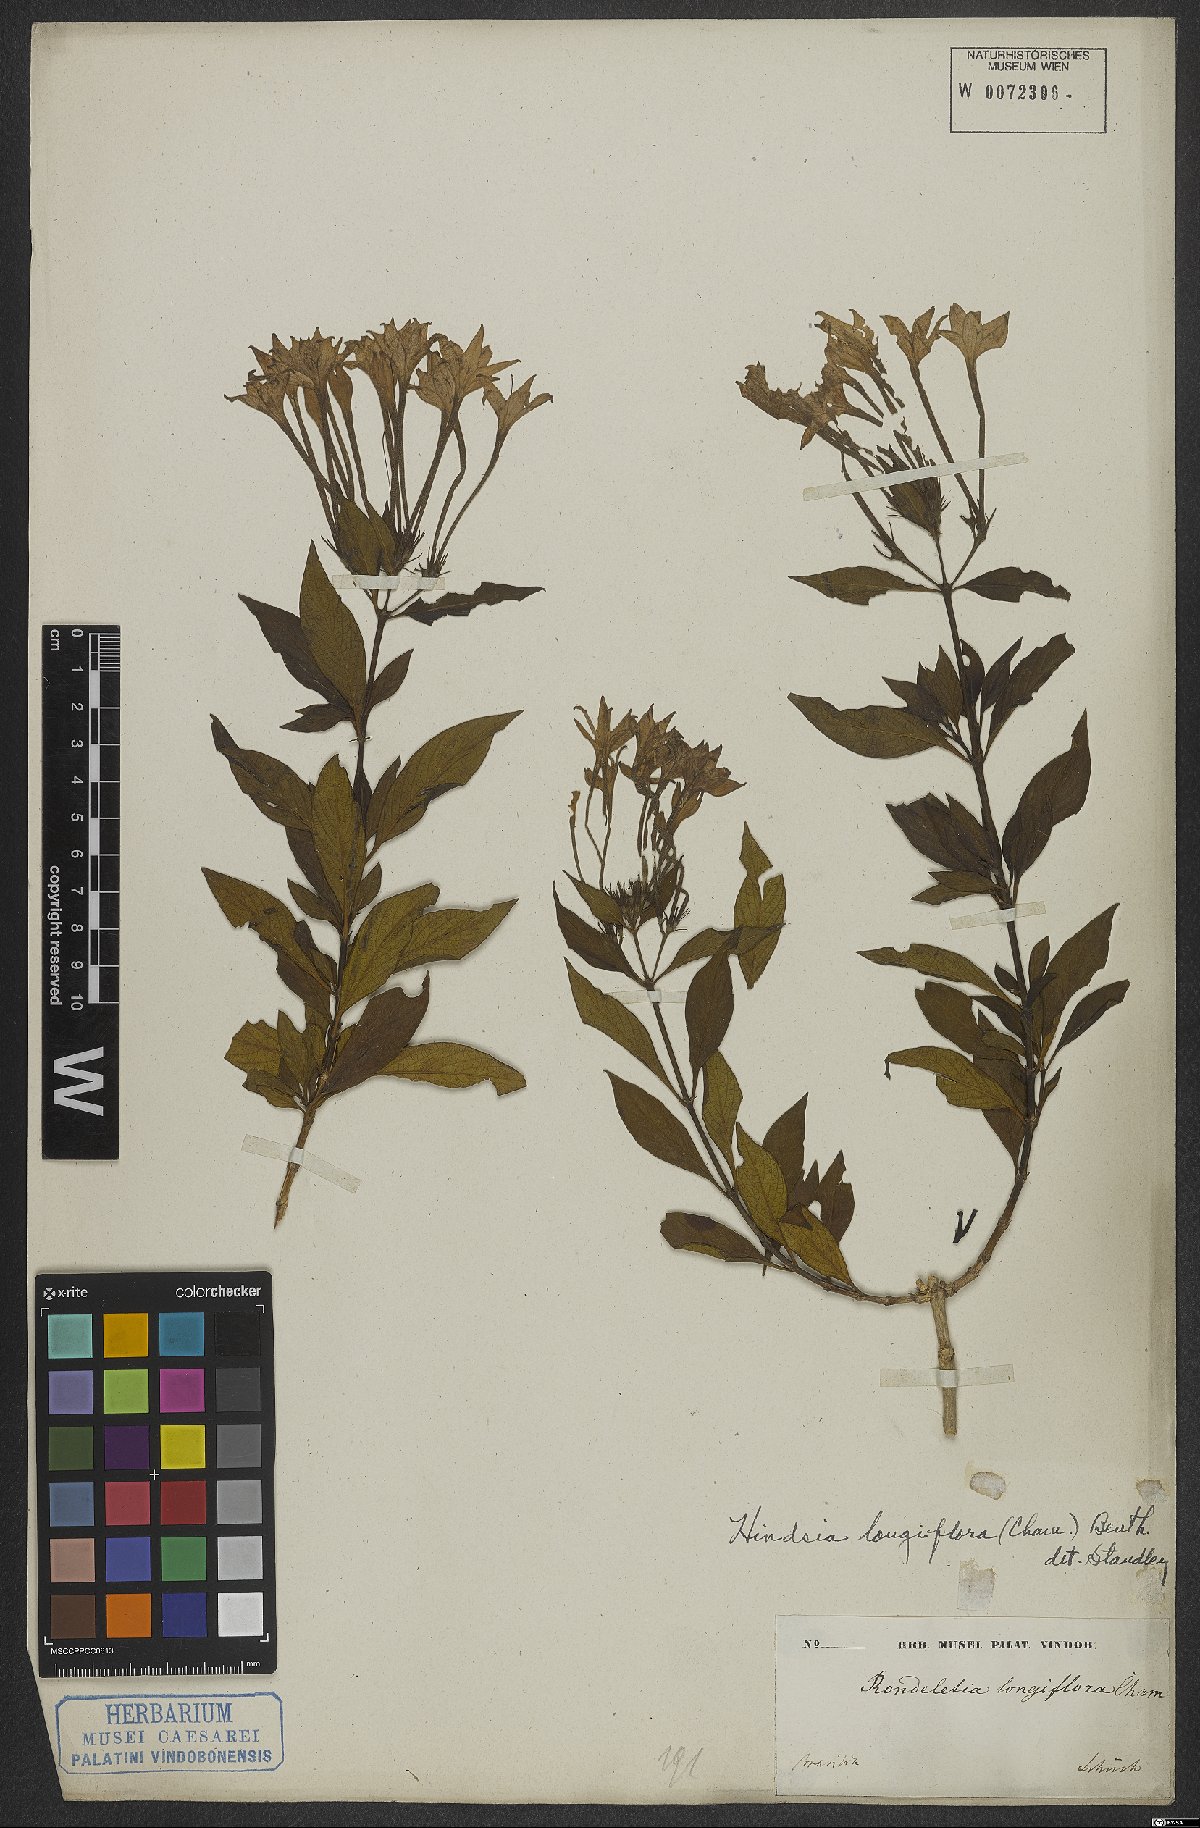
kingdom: Plantae
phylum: Tracheophyta
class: Magnoliopsida
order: Gentianales
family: Rubiaceae
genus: Hindsia
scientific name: Hindsia longiflora
